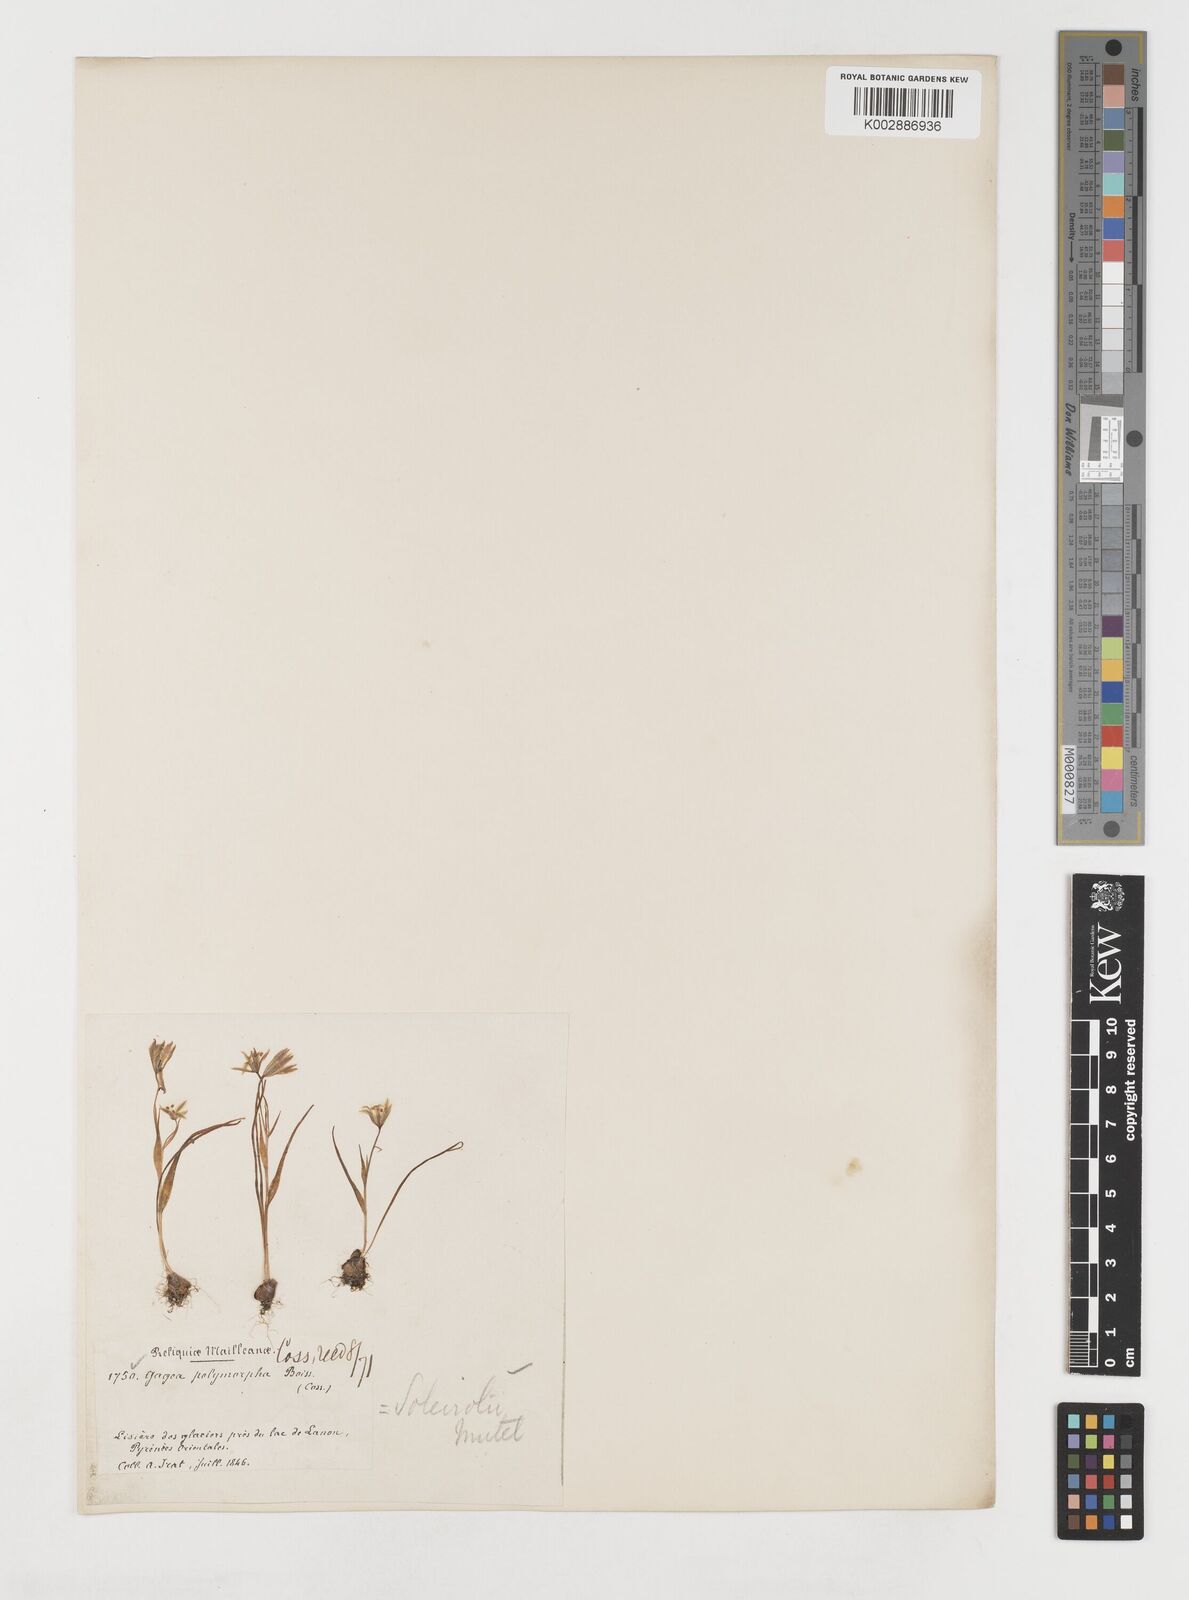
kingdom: Plantae
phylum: Tracheophyta
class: Liliopsida
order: Liliales
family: Liliaceae
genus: Gagea
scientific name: Gagea soleirolii
